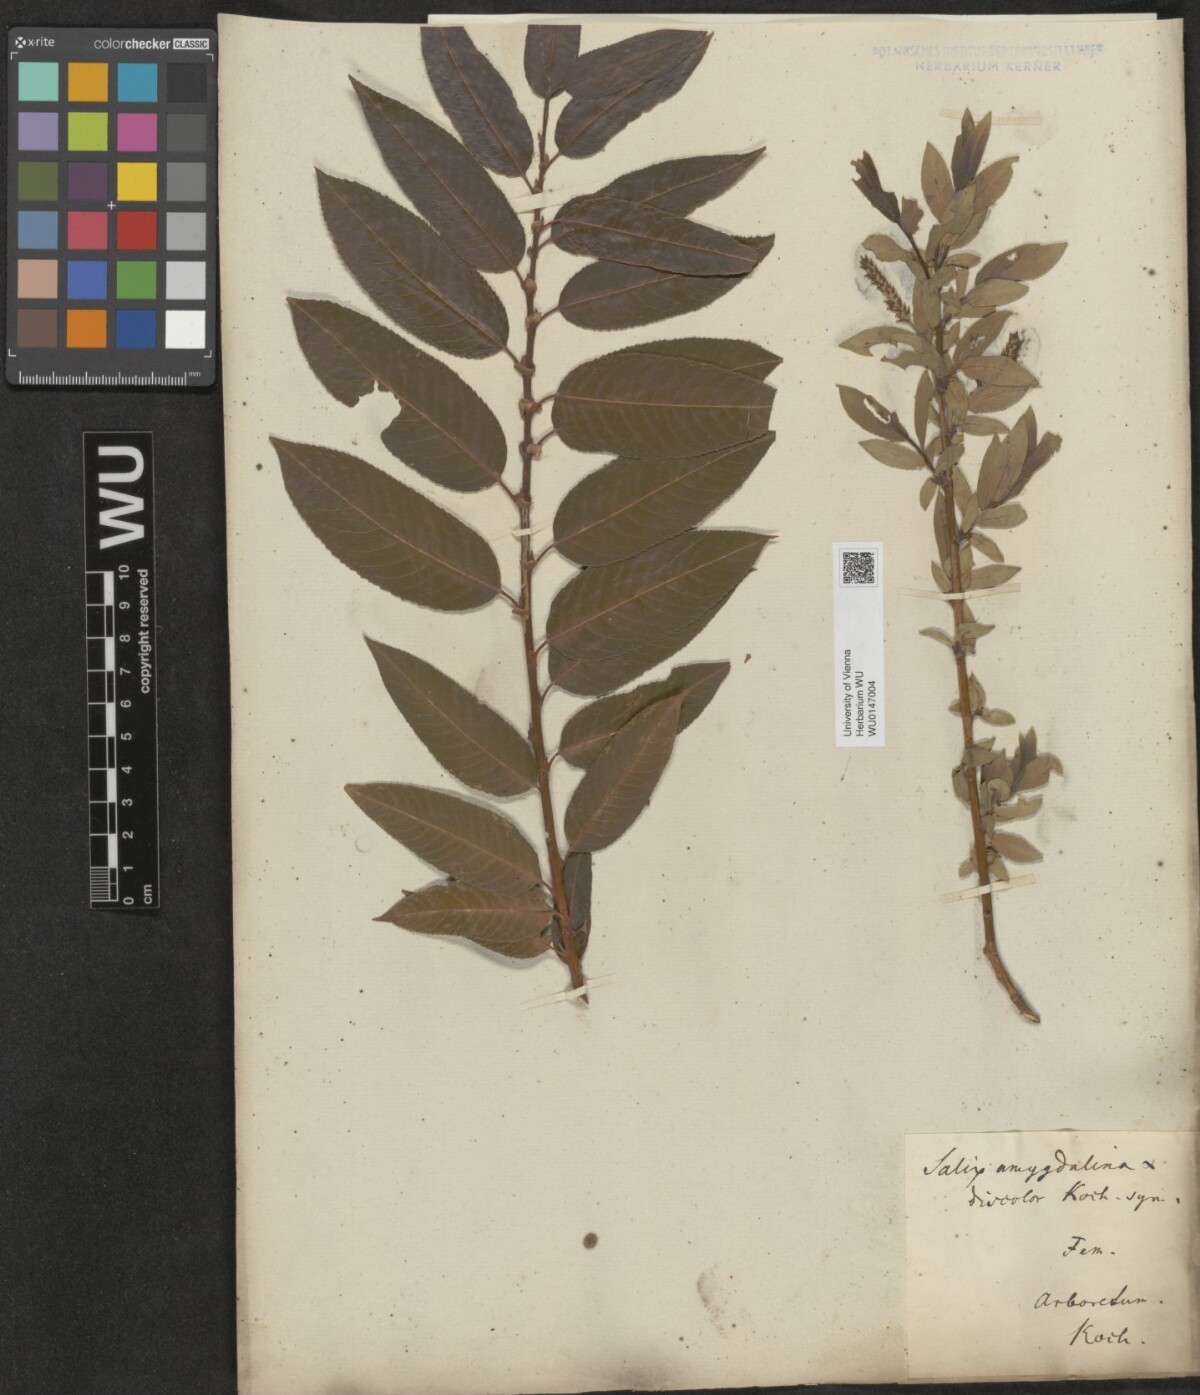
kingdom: Plantae
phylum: Tracheophyta
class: Magnoliopsida
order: Malpighiales
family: Salicaceae
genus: Salix
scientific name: Salix triandra
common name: Almond willow
